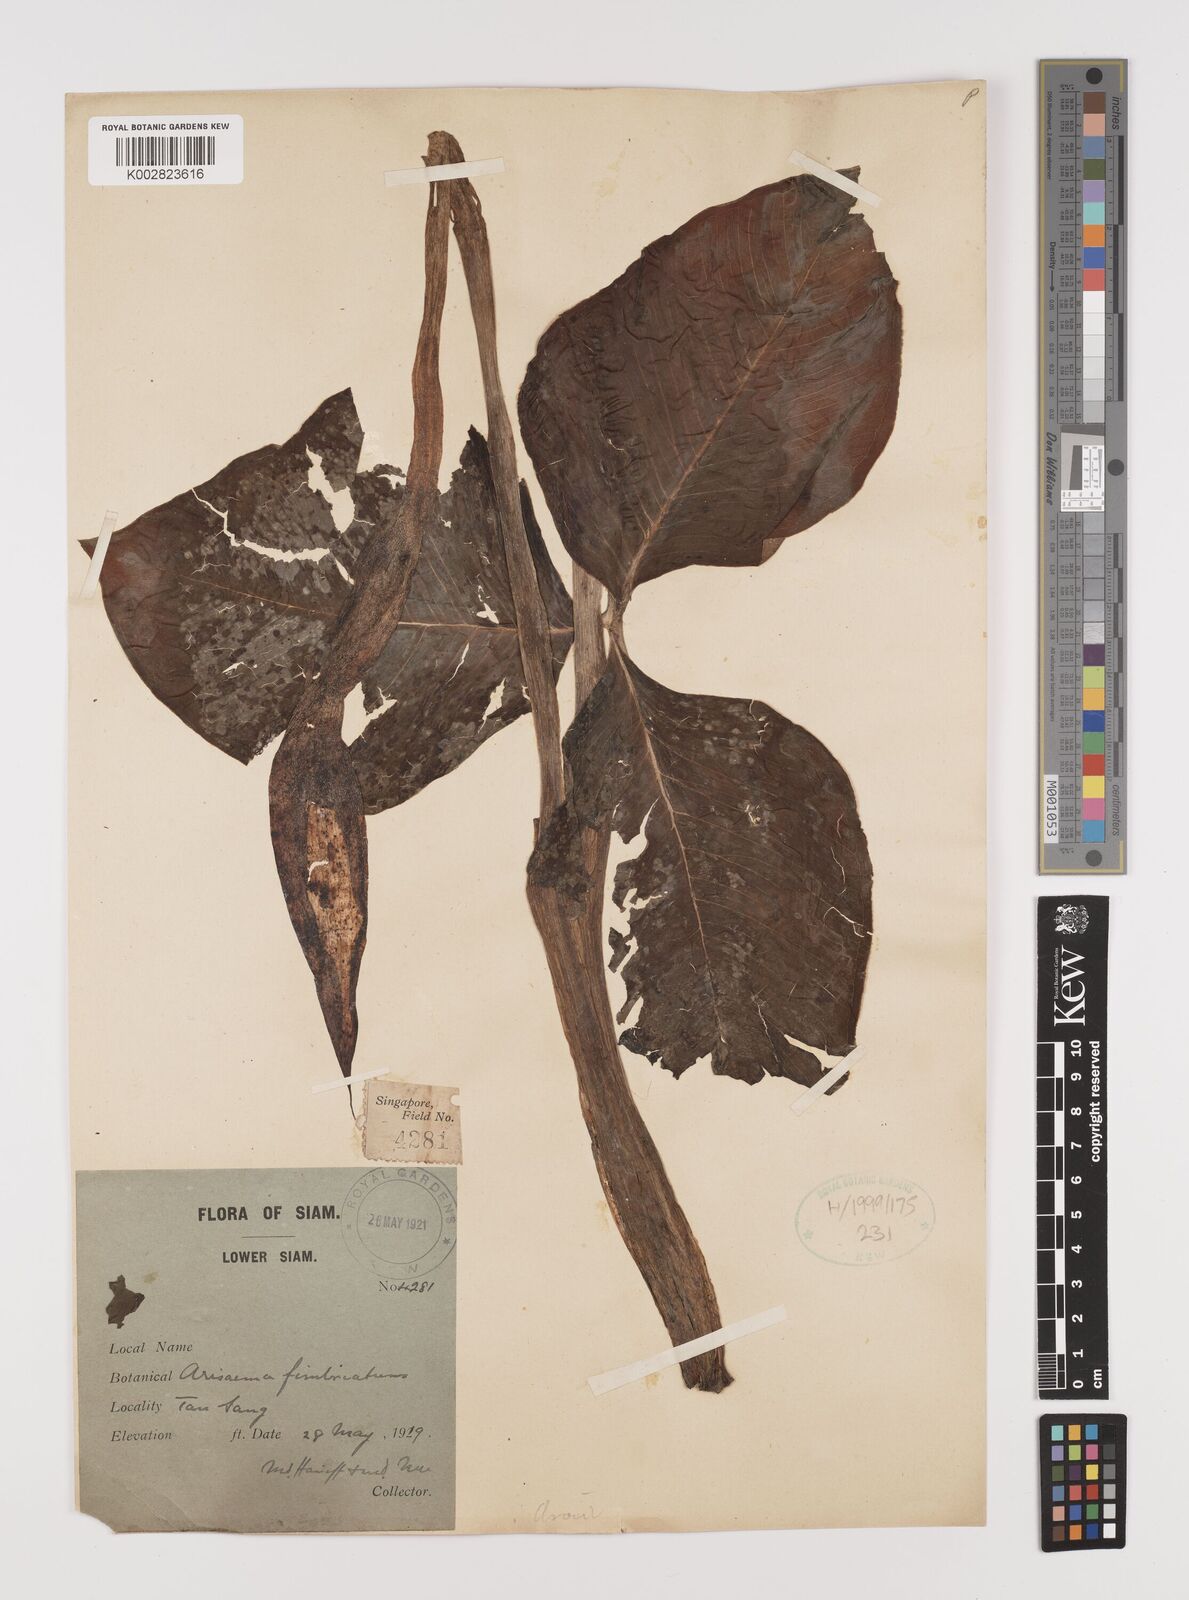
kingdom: Plantae
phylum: Tracheophyta
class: Liliopsida
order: Alismatales
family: Araceae
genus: Arisaema
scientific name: Arisaema fimbriatum
